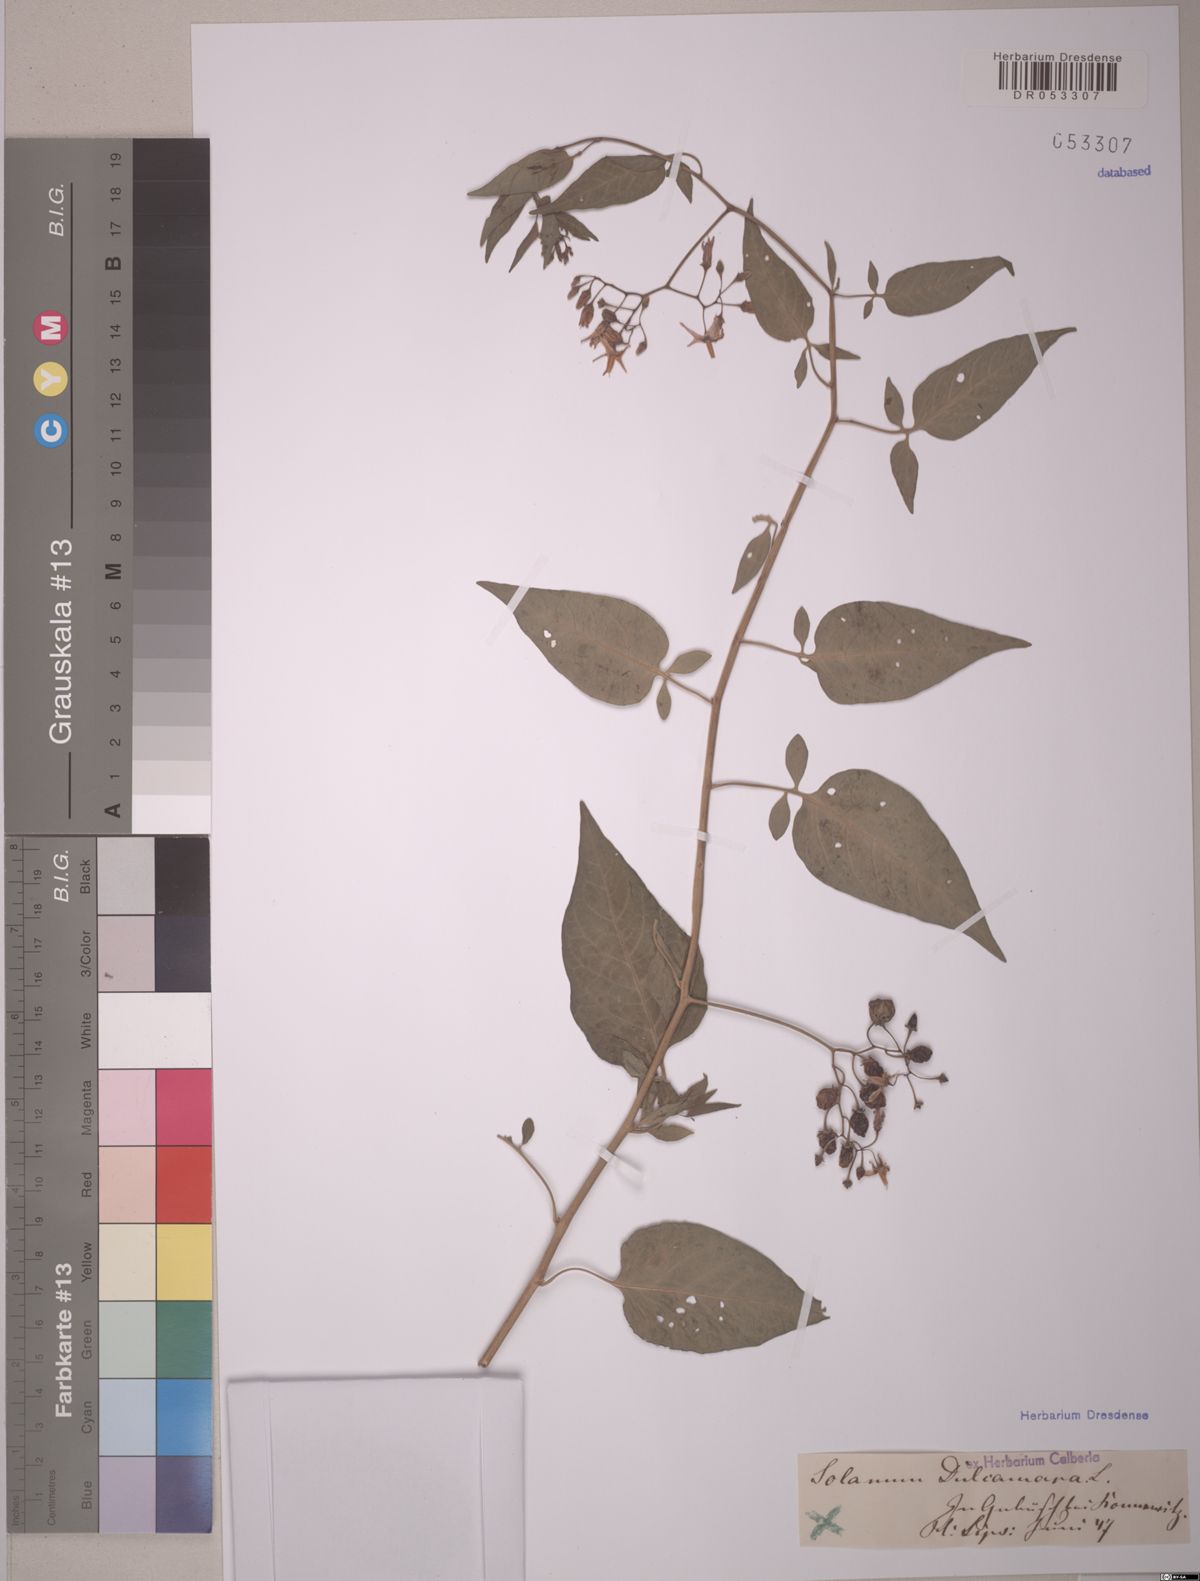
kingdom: Plantae
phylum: Tracheophyta
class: Magnoliopsida
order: Solanales
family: Solanaceae
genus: Solanum
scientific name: Solanum dulcamara
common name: Climbing nightshade
